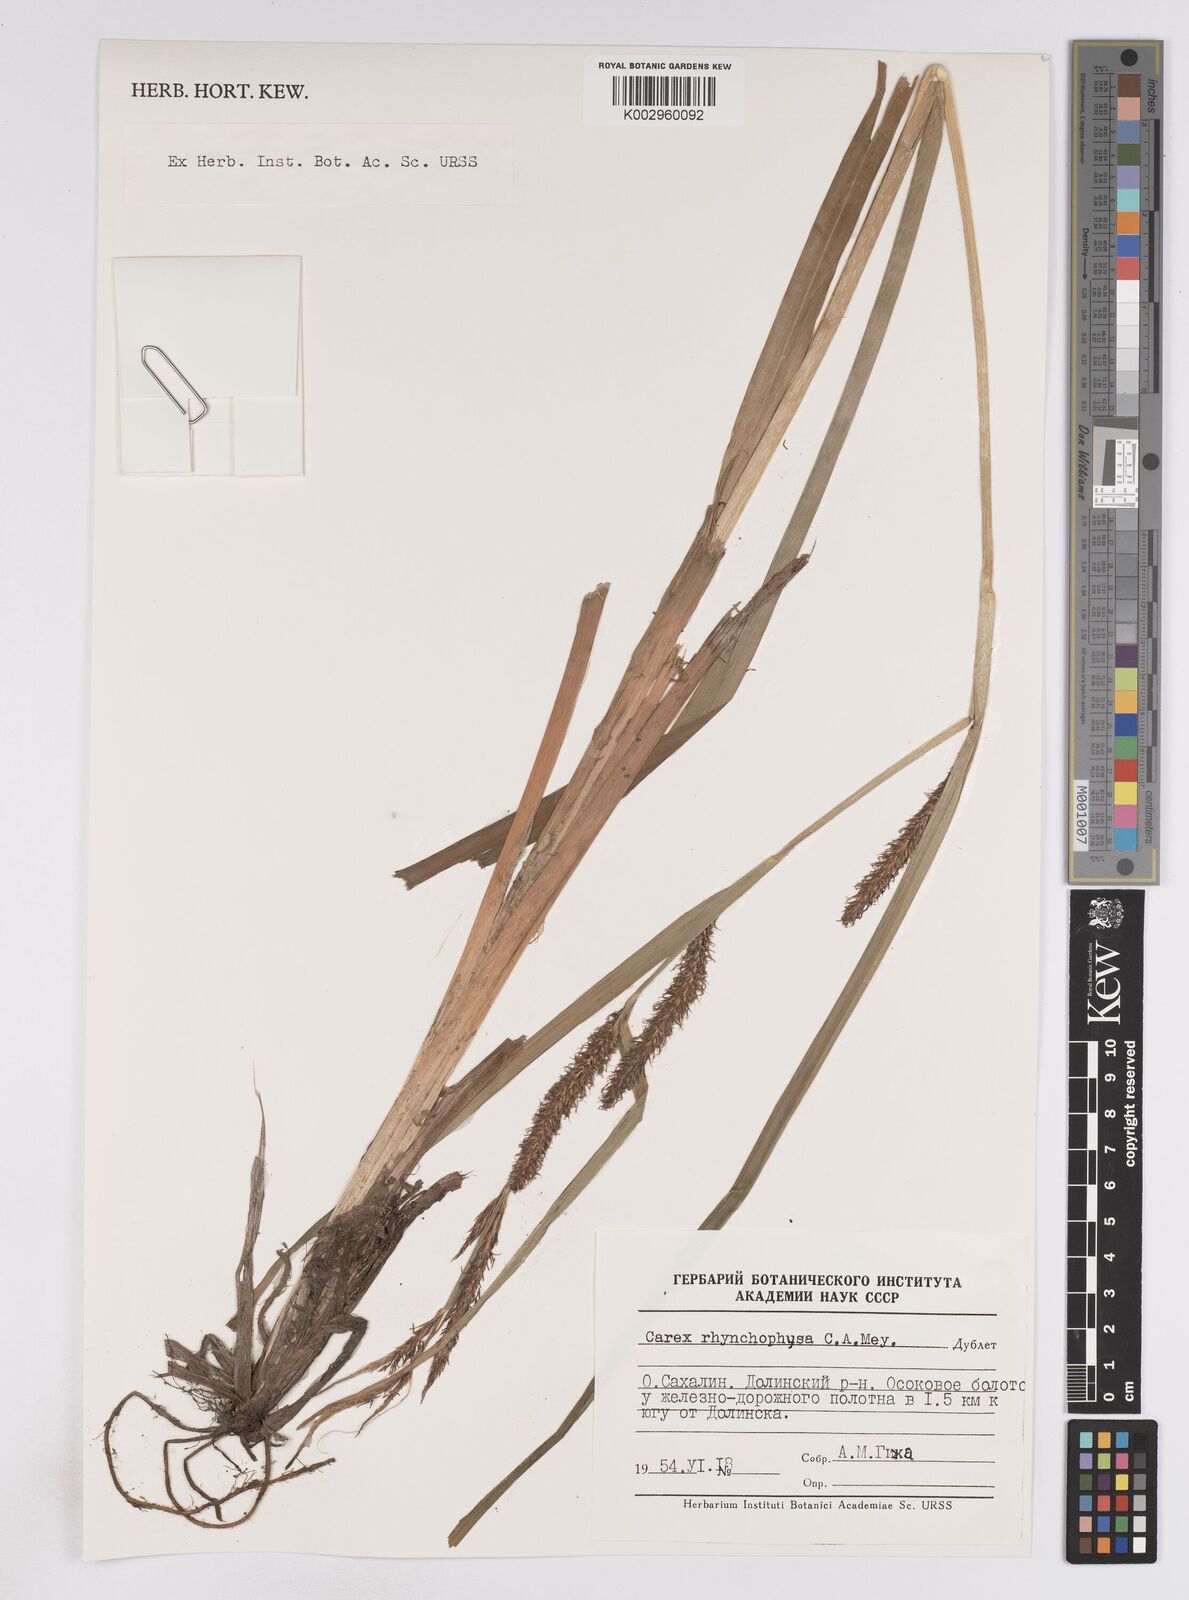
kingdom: Plantae
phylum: Tracheophyta
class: Liliopsida
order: Poales
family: Cyperaceae
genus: Carex
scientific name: Carex utriculata
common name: Beaked sedge
